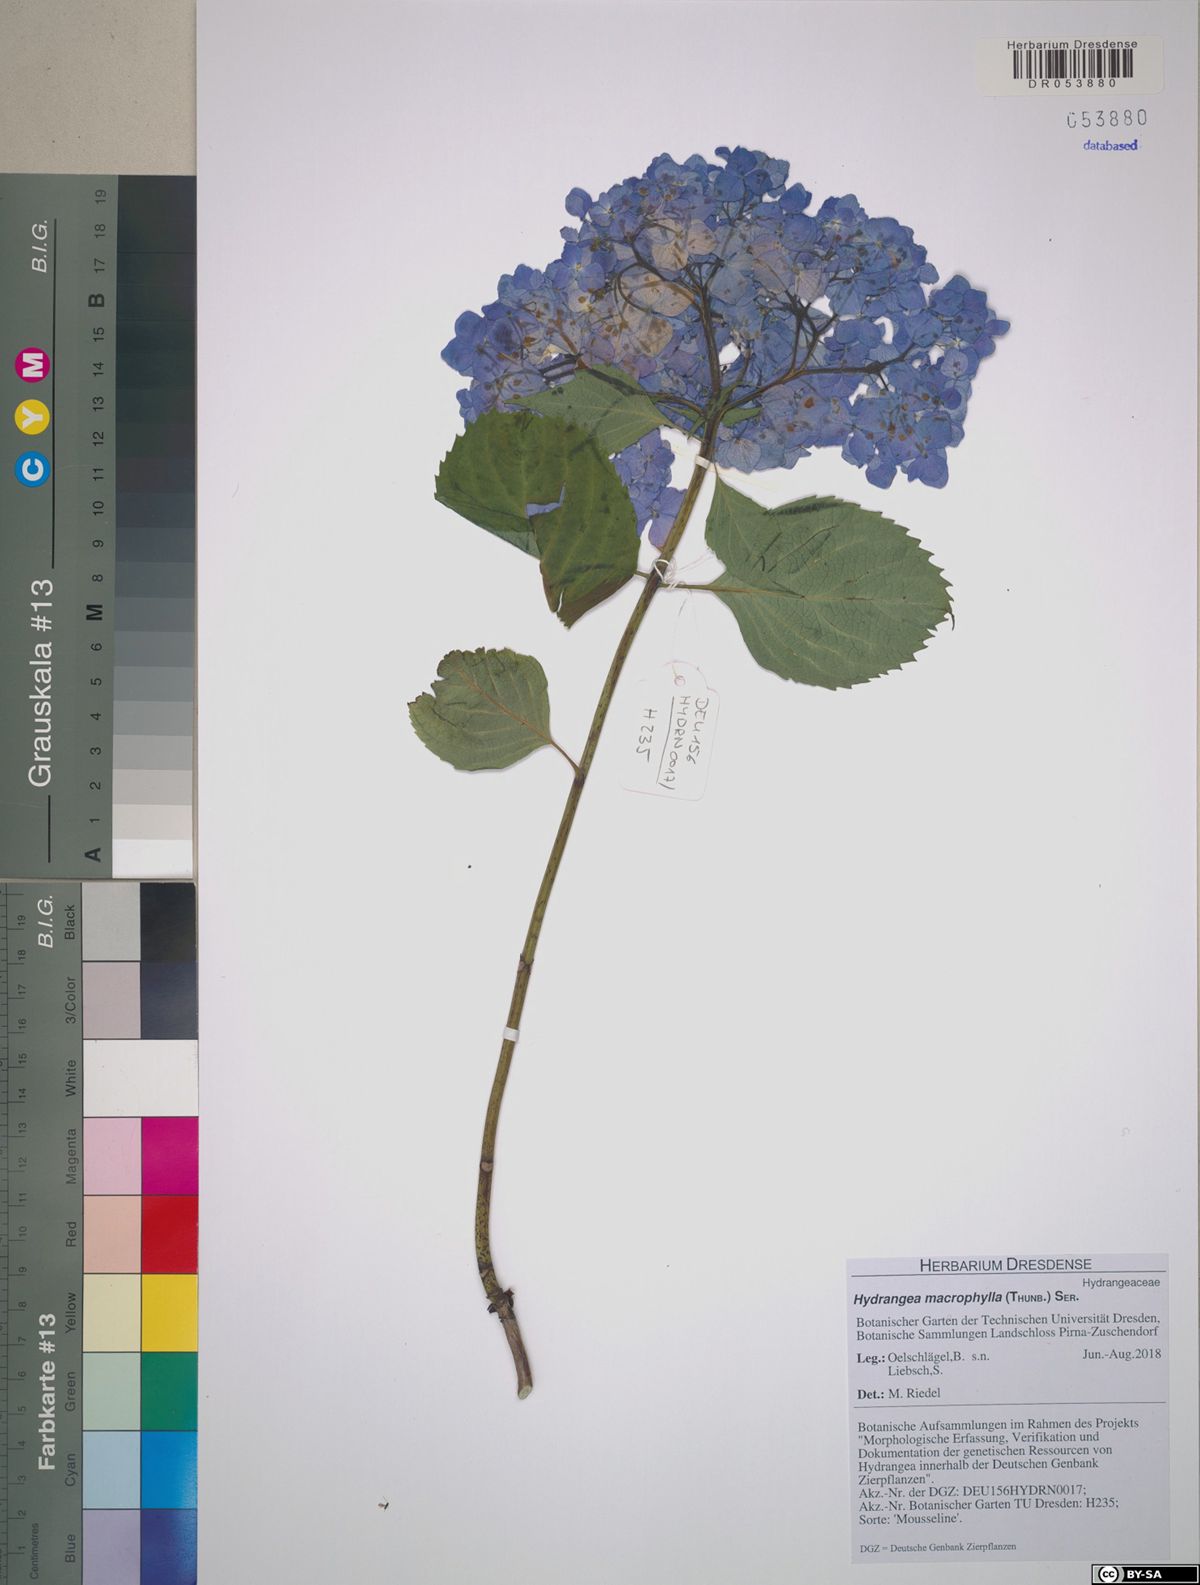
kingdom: Plantae
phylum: Tracheophyta
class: Magnoliopsida
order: Cornales
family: Hydrangeaceae
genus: Hydrangea
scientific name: Hydrangea macrophylla
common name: Hydrangea
